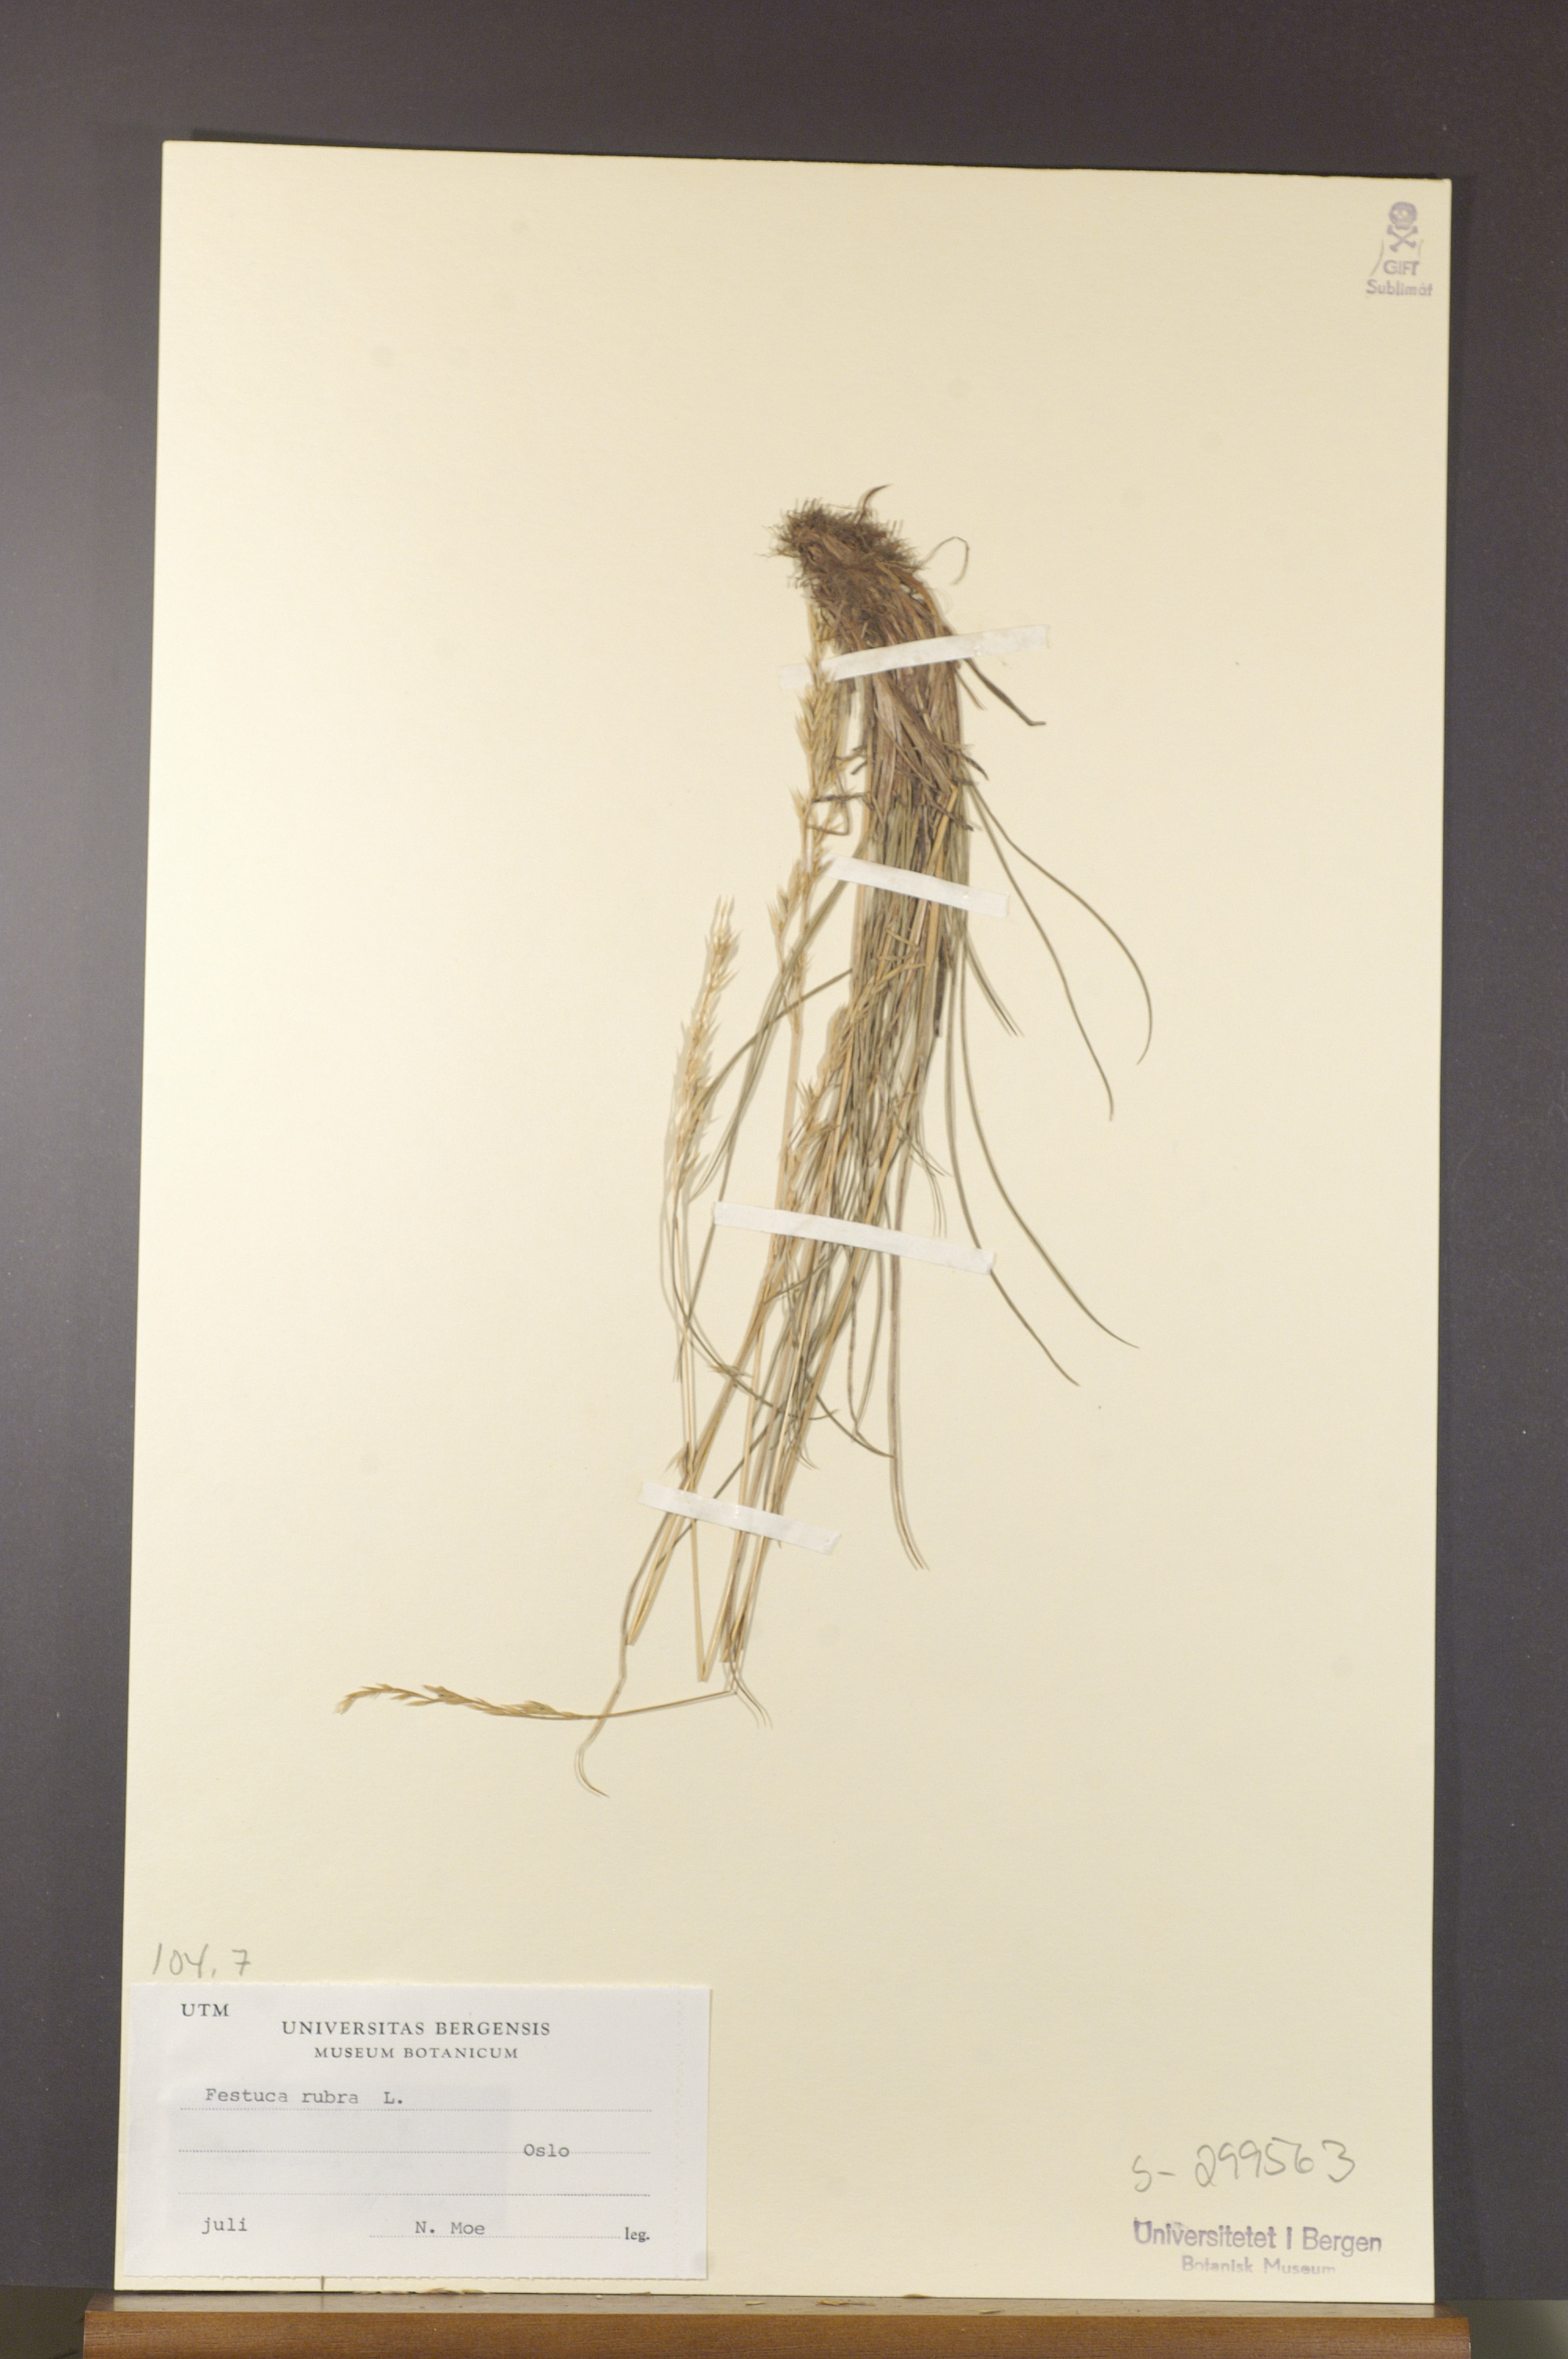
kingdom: Plantae
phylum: Tracheophyta
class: Liliopsida
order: Poales
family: Poaceae
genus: Festuca
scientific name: Festuca rubra
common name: Red fescue
